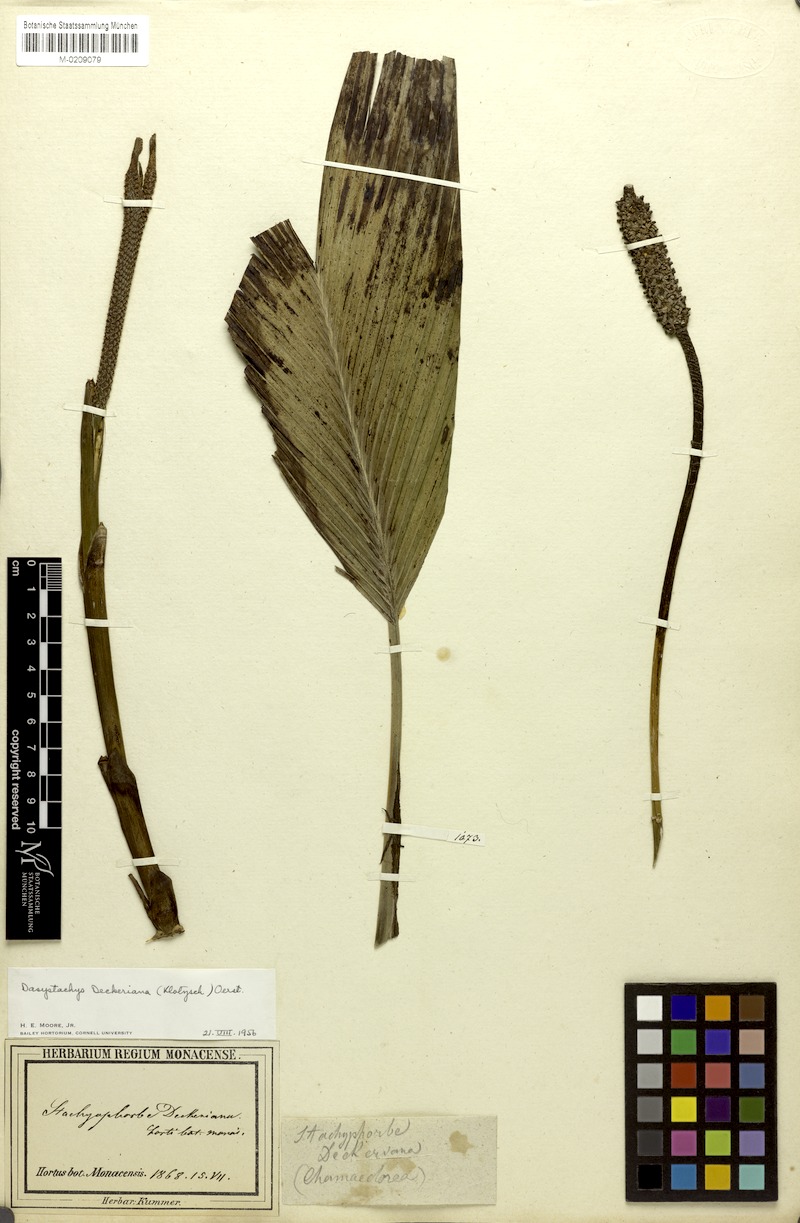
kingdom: Plantae
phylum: Tracheophyta
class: Liliopsida
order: Arecales
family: Arecaceae
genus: Chamaedorea
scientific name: Chamaedorea deckeriana
